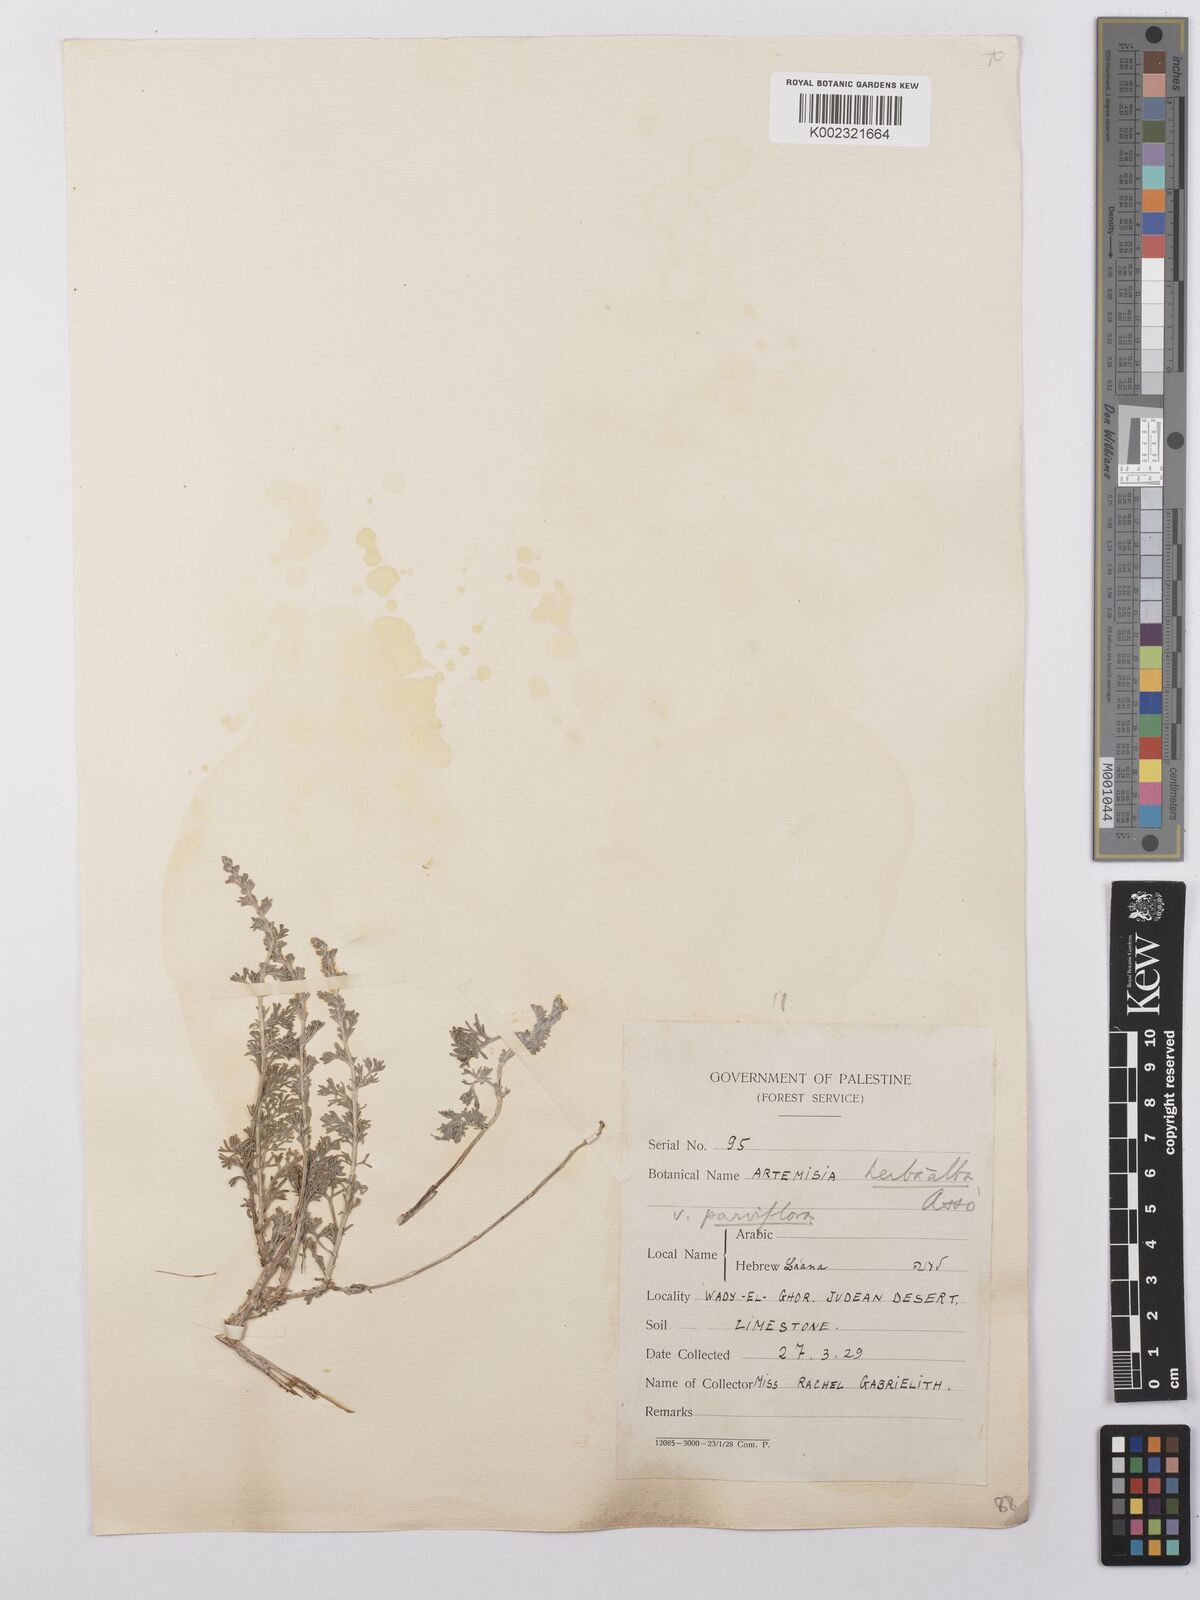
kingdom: Plantae
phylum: Tracheophyta
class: Magnoliopsida
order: Asterales
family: Asteraceae
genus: Artemisia
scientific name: Artemisia herba-alba
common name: White wormwood
